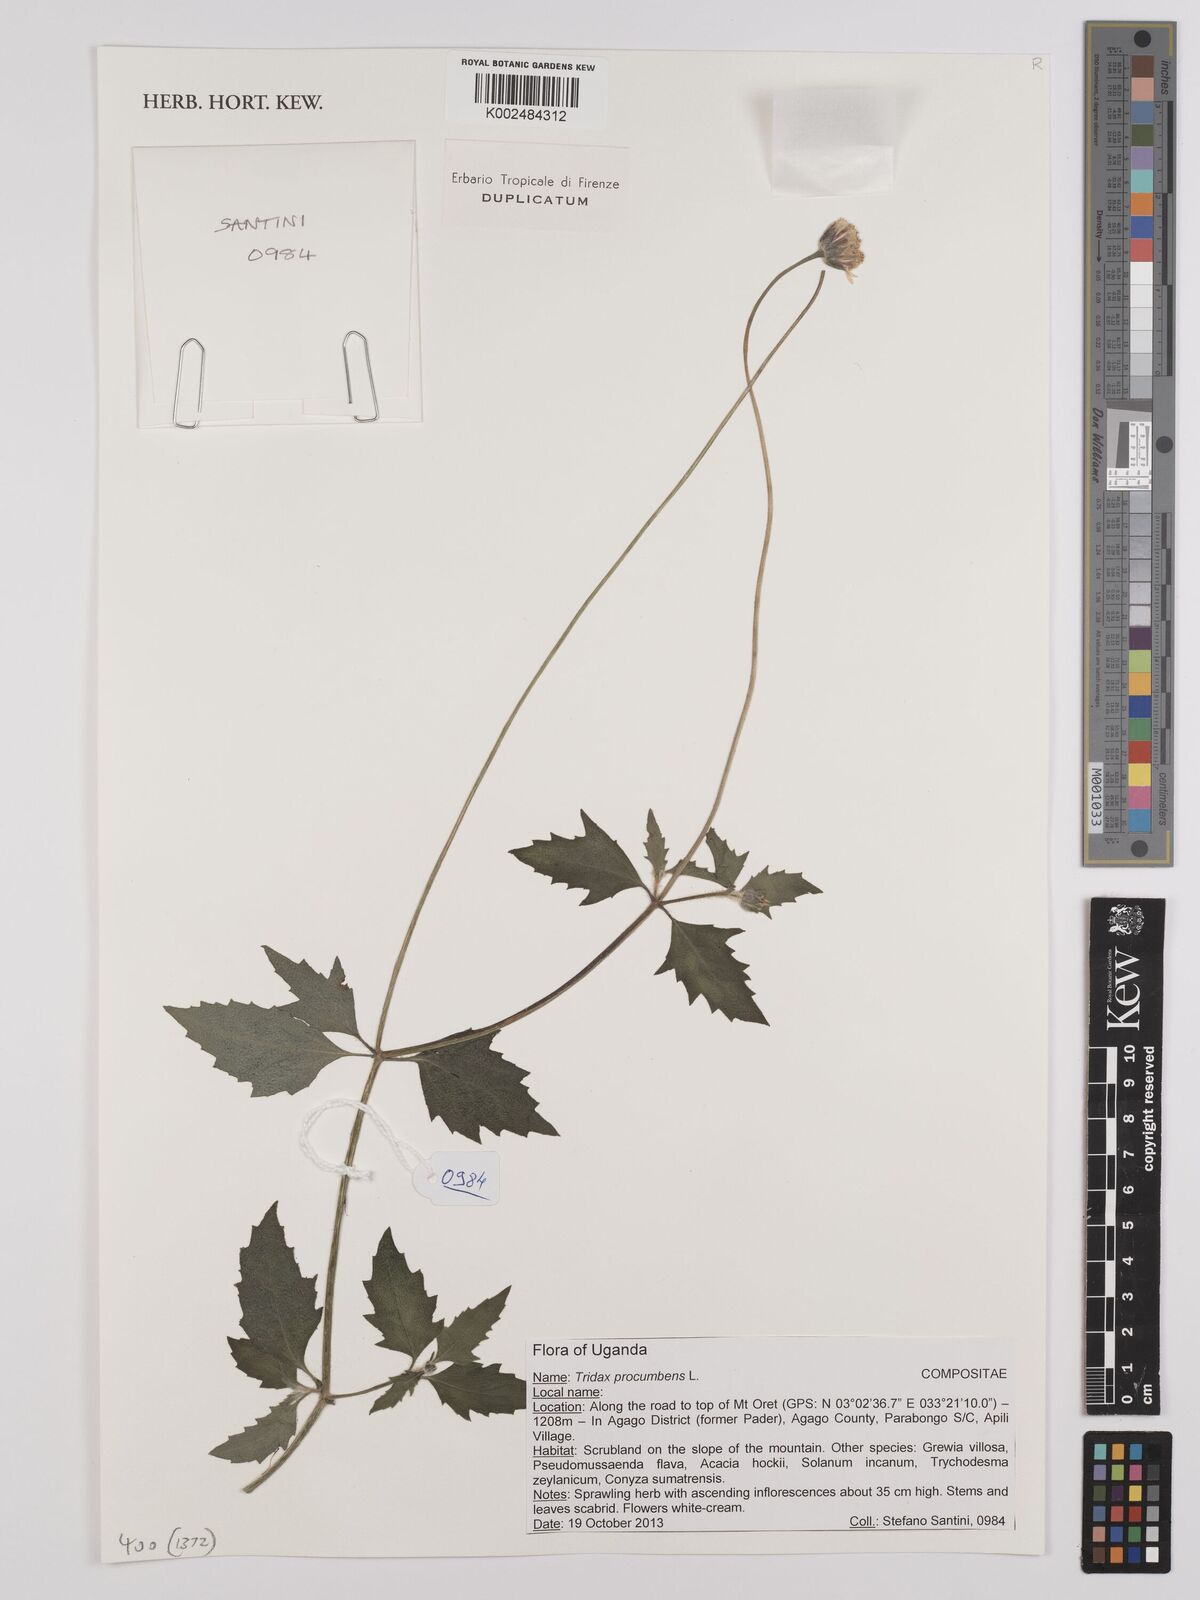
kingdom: Plantae
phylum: Tracheophyta
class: Magnoliopsida
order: Asterales
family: Asteraceae
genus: Tridax
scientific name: Tridax procumbens
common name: Coatbuttons
